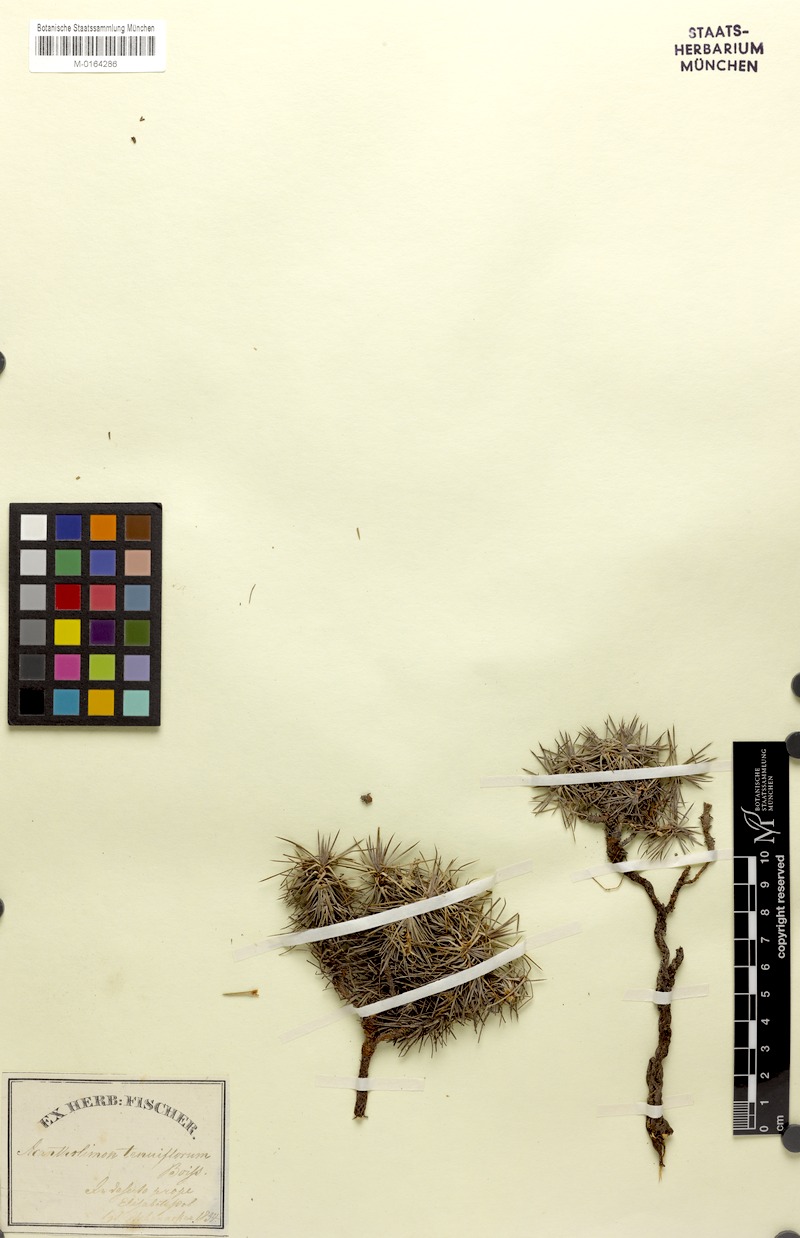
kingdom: Plantae
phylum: Tracheophyta
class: Magnoliopsida
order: Caryophyllales
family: Plumbaginaceae
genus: Acantholimon
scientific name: Acantholimon hohenackeri
